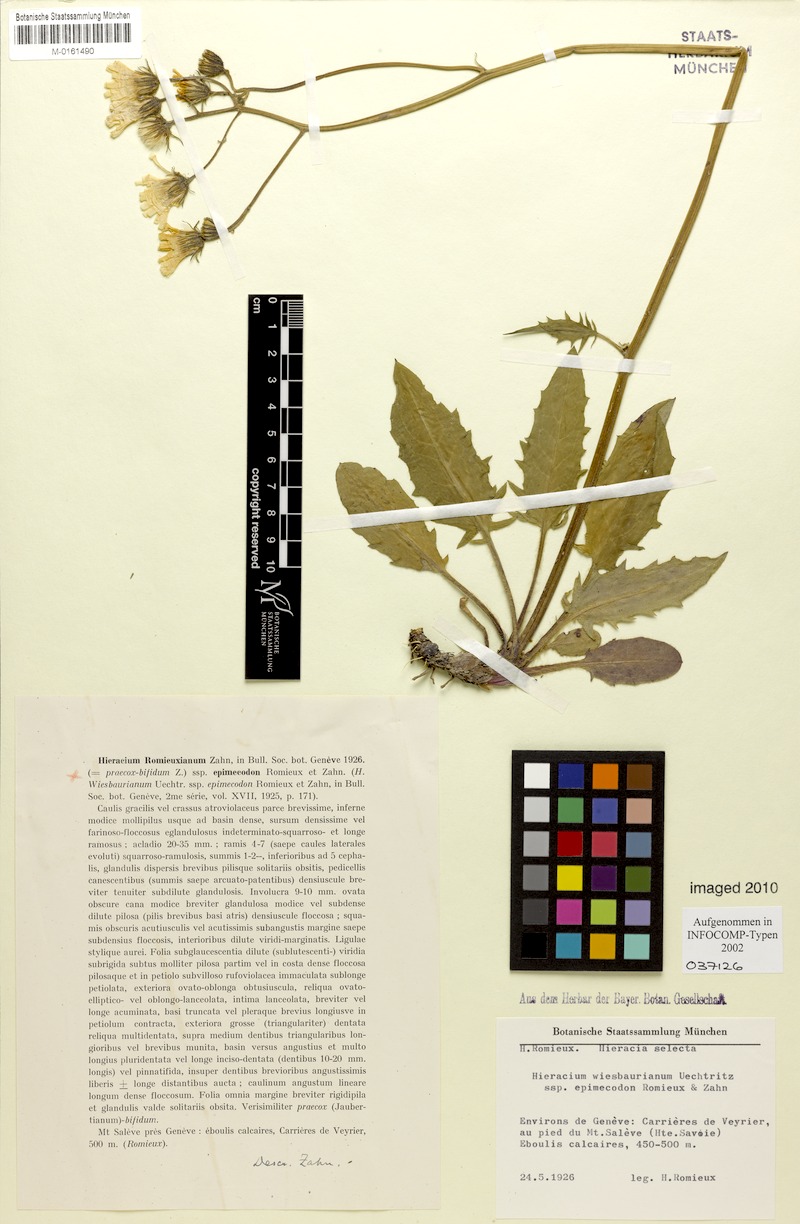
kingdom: Plantae
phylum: Tracheophyta
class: Magnoliopsida
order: Asterales
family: Asteraceae
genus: Hieracium
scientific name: Hieracium hypochoeroides
